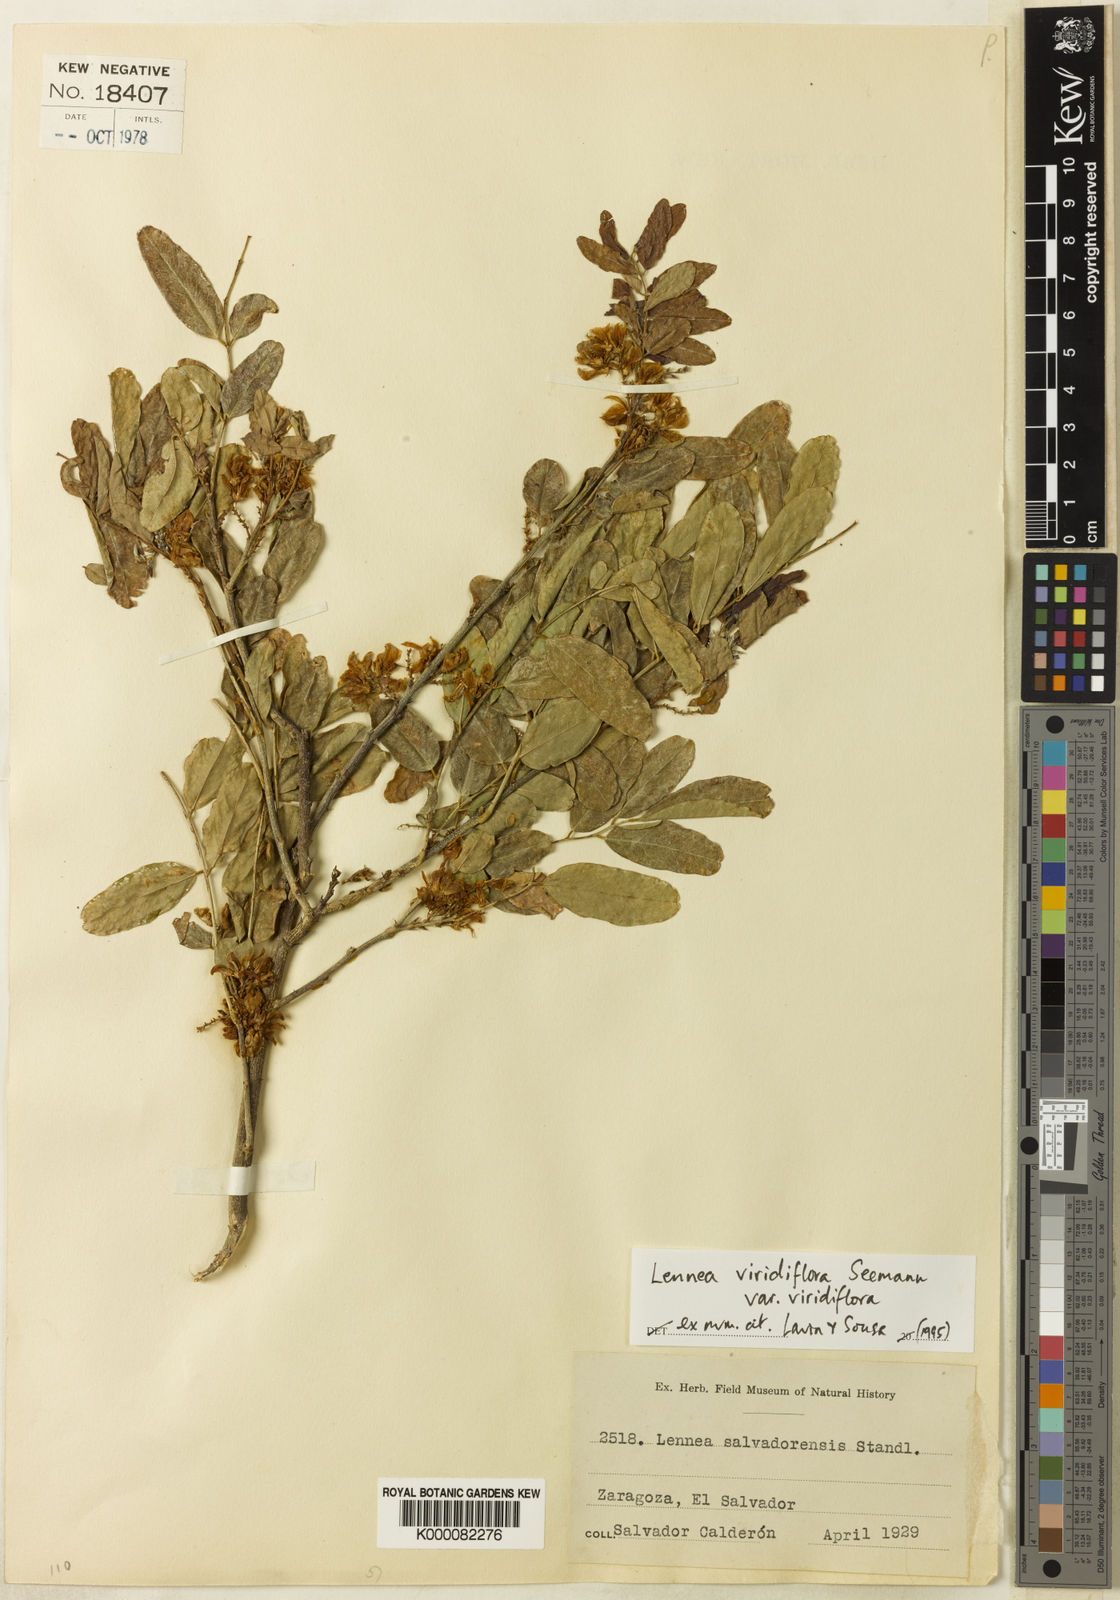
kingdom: Plantae
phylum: Tracheophyta
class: Magnoliopsida
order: Fabales
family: Fabaceae
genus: Lennea
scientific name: Lennea viridiflora
